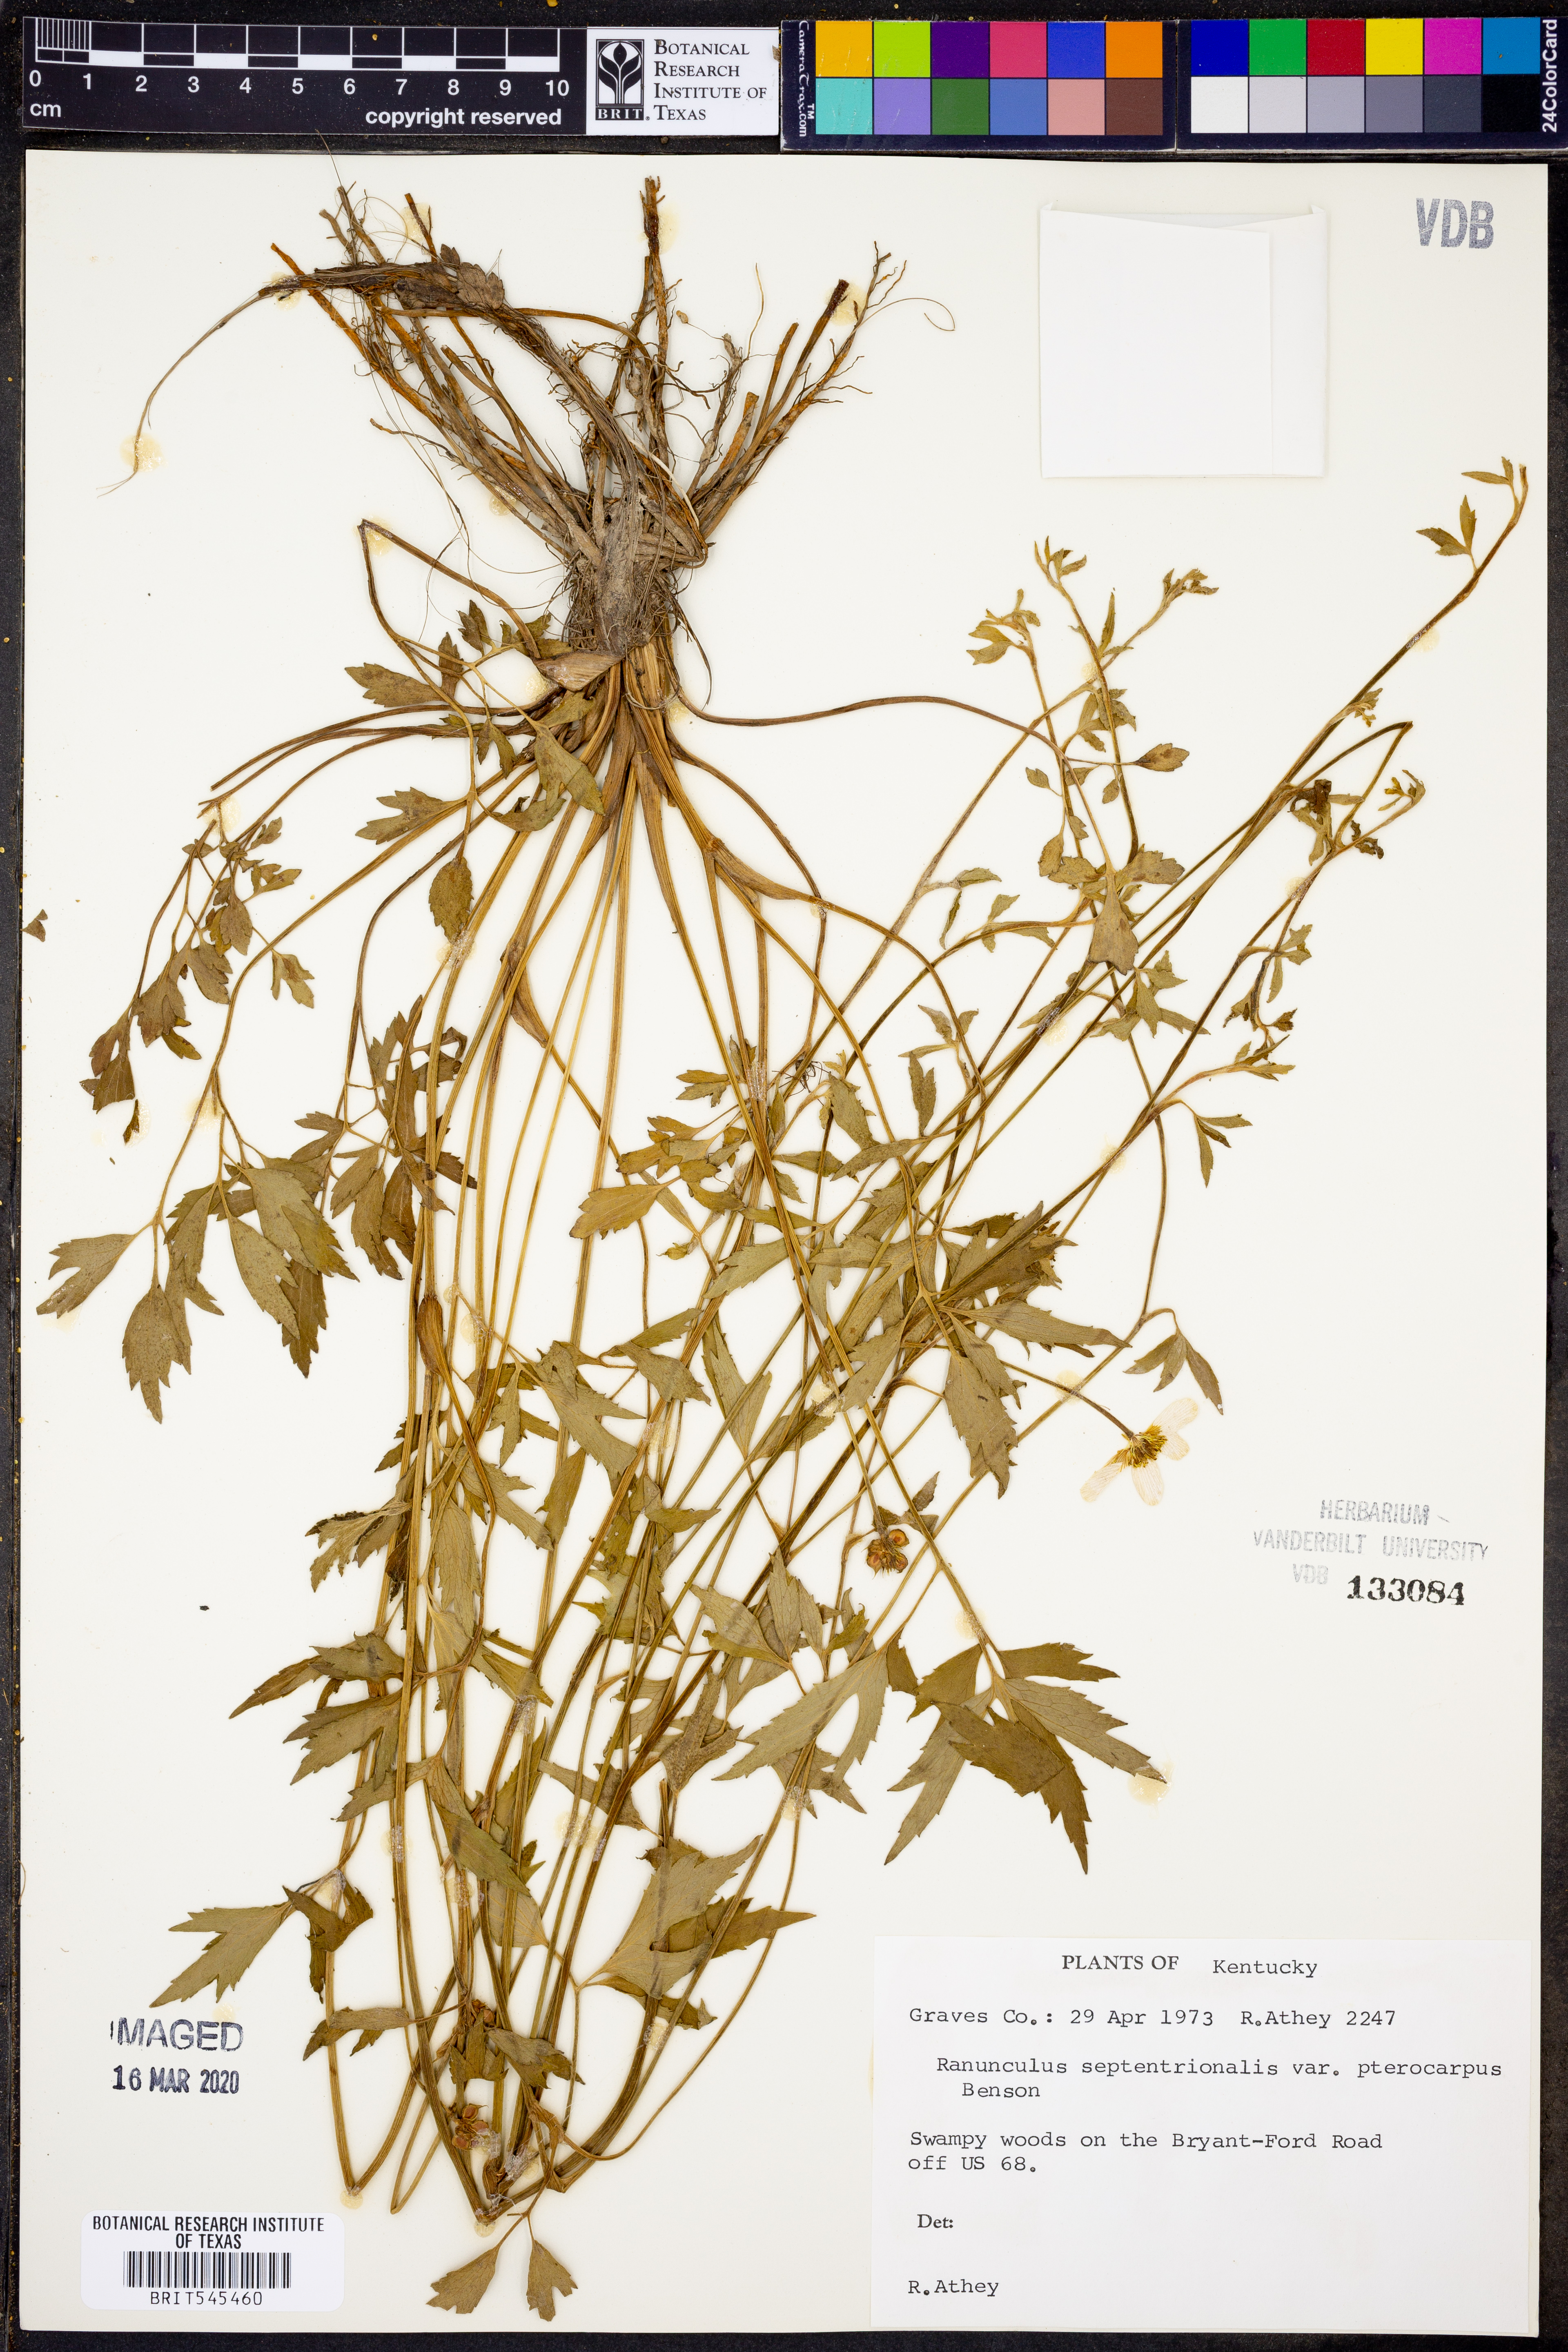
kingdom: Plantae
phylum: Tracheophyta
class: Magnoliopsida
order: Ranunculales
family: Ranunculaceae
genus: Ranunculus
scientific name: Ranunculus hispidus
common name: Bristly buttercup
